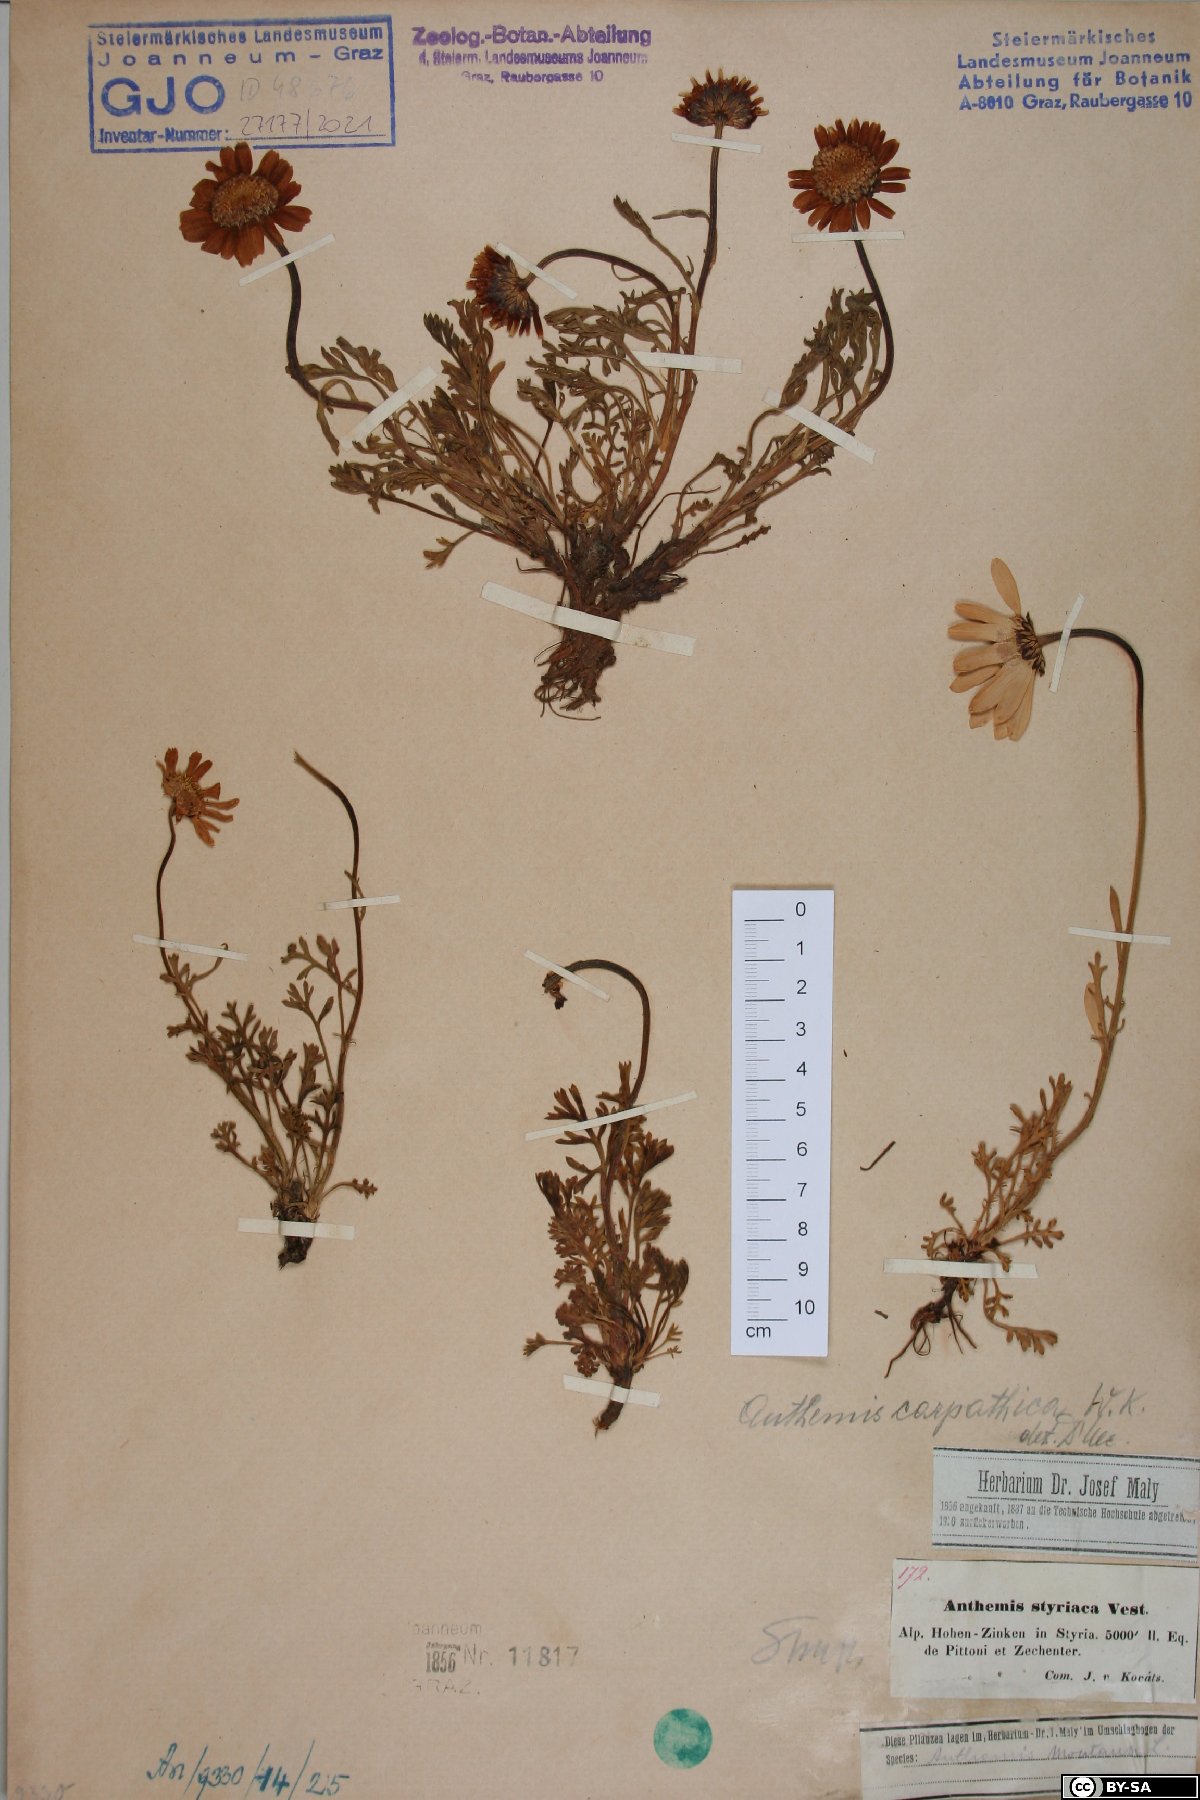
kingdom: Plantae
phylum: Tracheophyta
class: Magnoliopsida
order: Asterales
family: Asteraceae
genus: Anthemis
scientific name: Anthemis cretica
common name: Mountain dog-daisy
